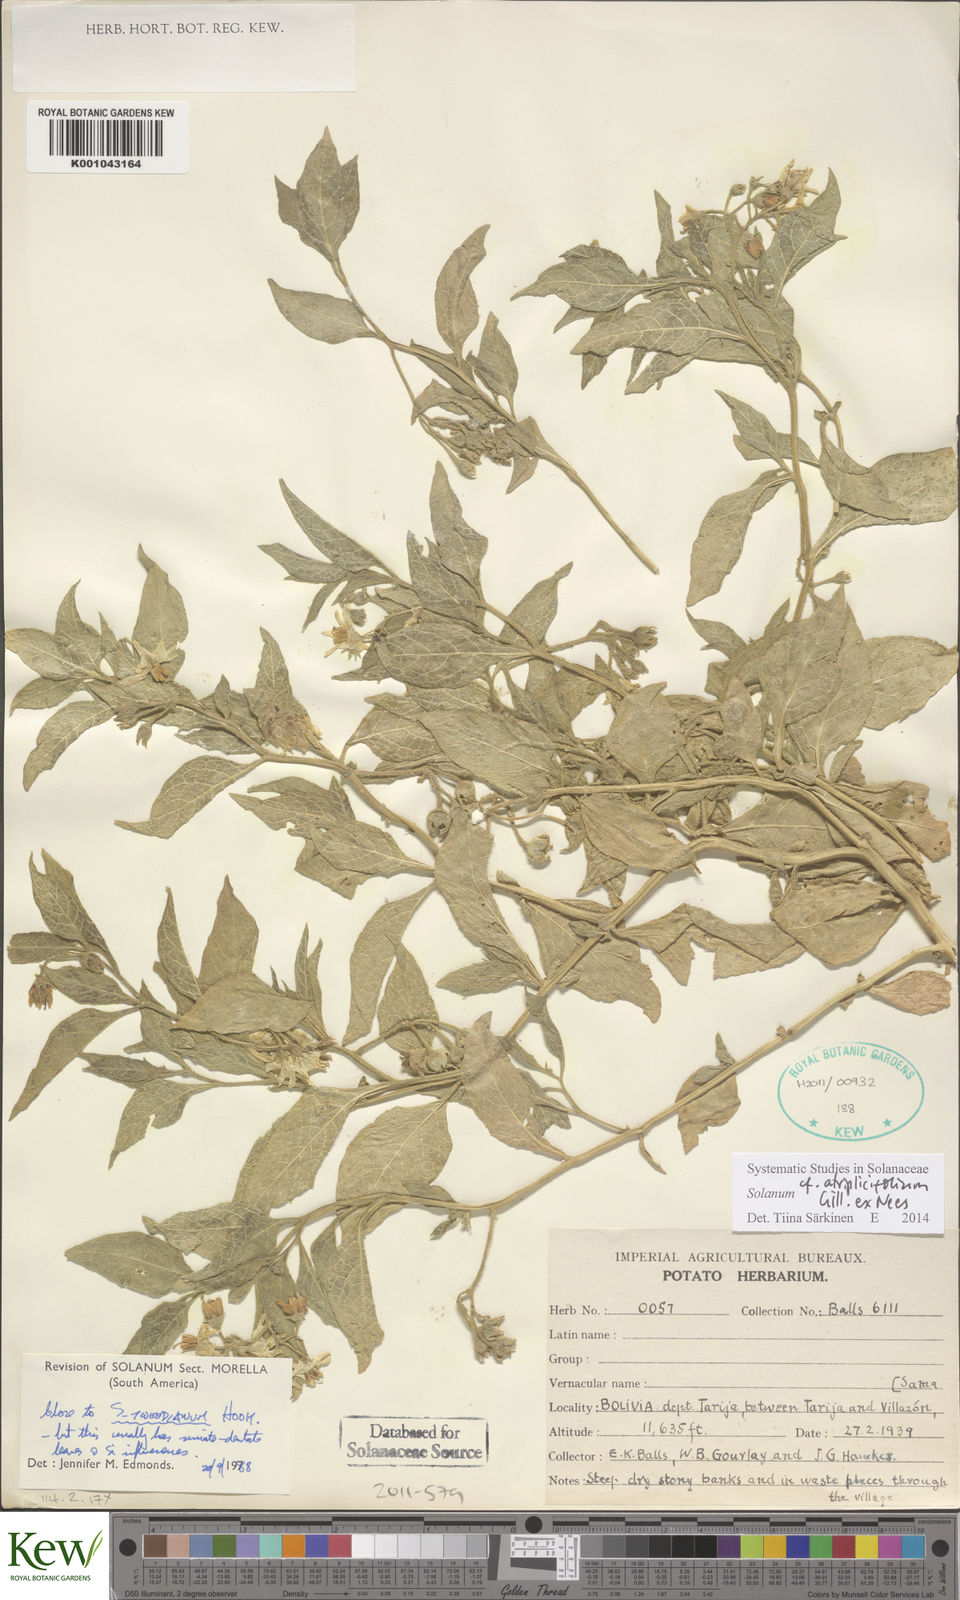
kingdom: Plantae
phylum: Tracheophyta
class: Magnoliopsida
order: Solanales
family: Solanaceae
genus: Solanum
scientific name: Solanum tweedianum
